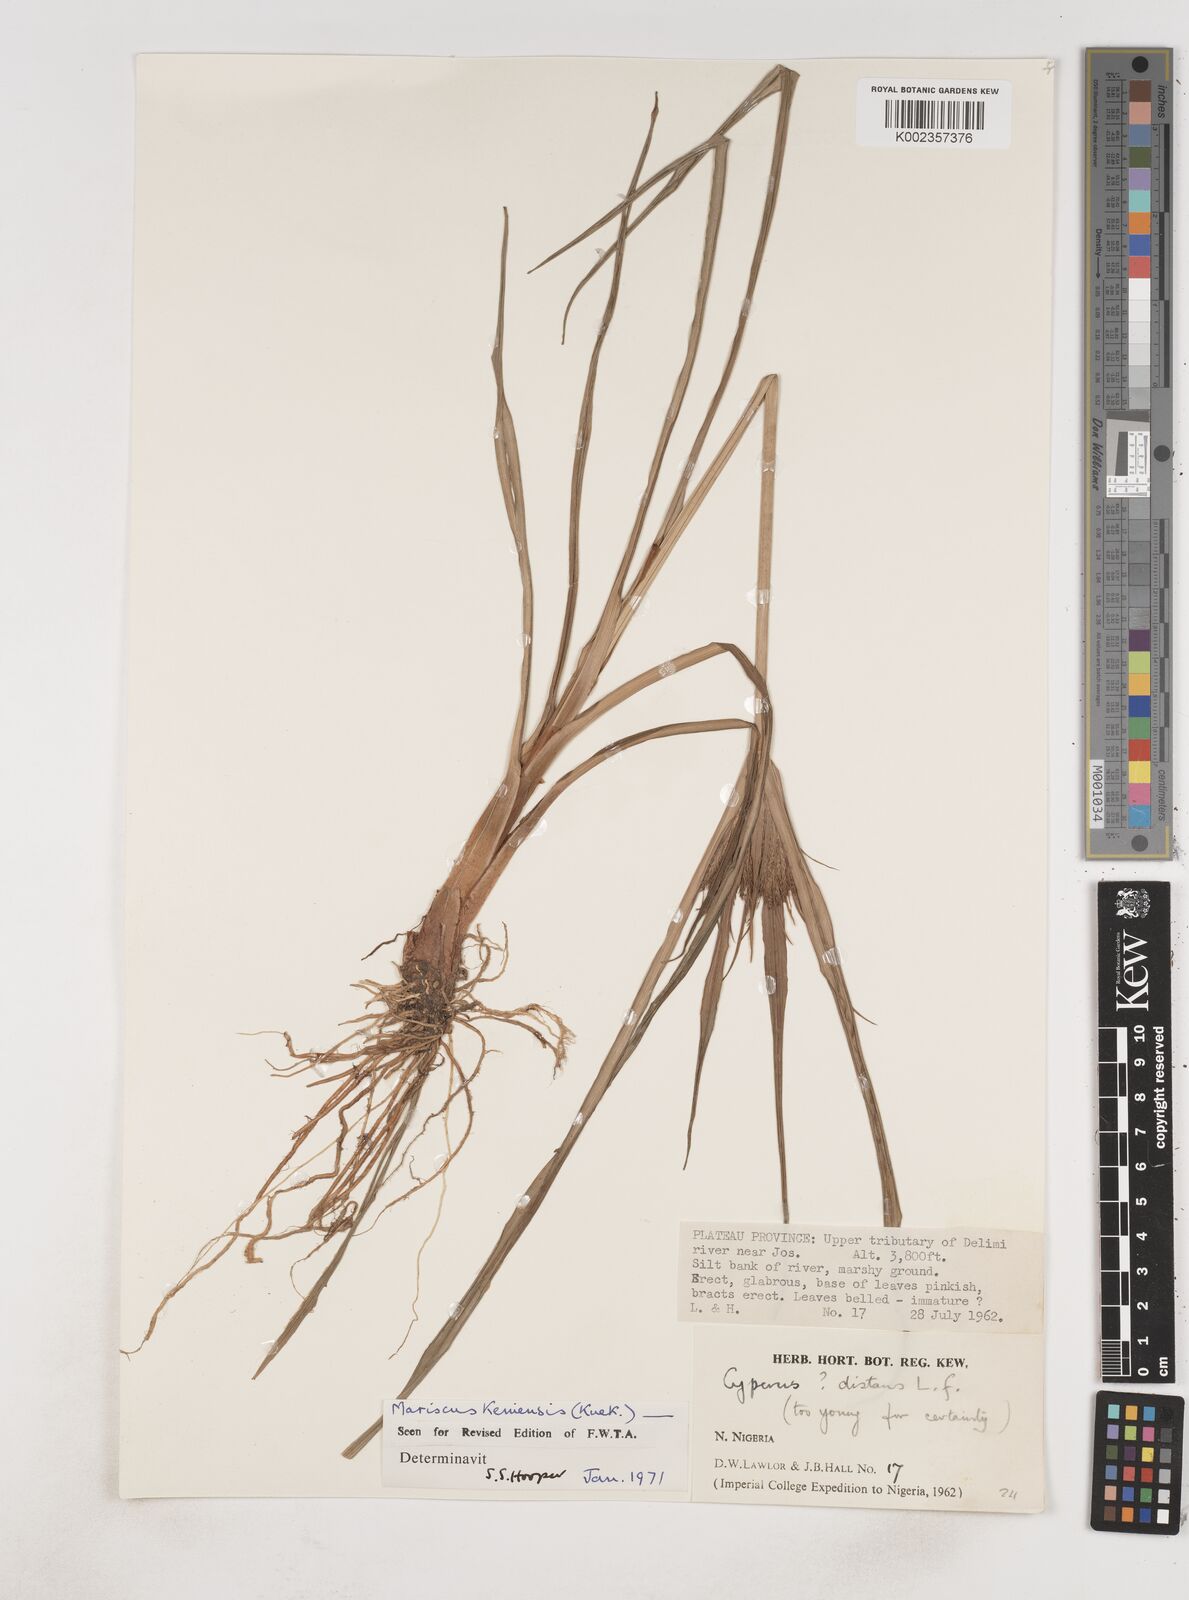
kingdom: Plantae
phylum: Tracheophyta
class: Liliopsida
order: Poales
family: Cyperaceae
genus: Cyperus
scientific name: Cyperus distans
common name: Slender cyperus
